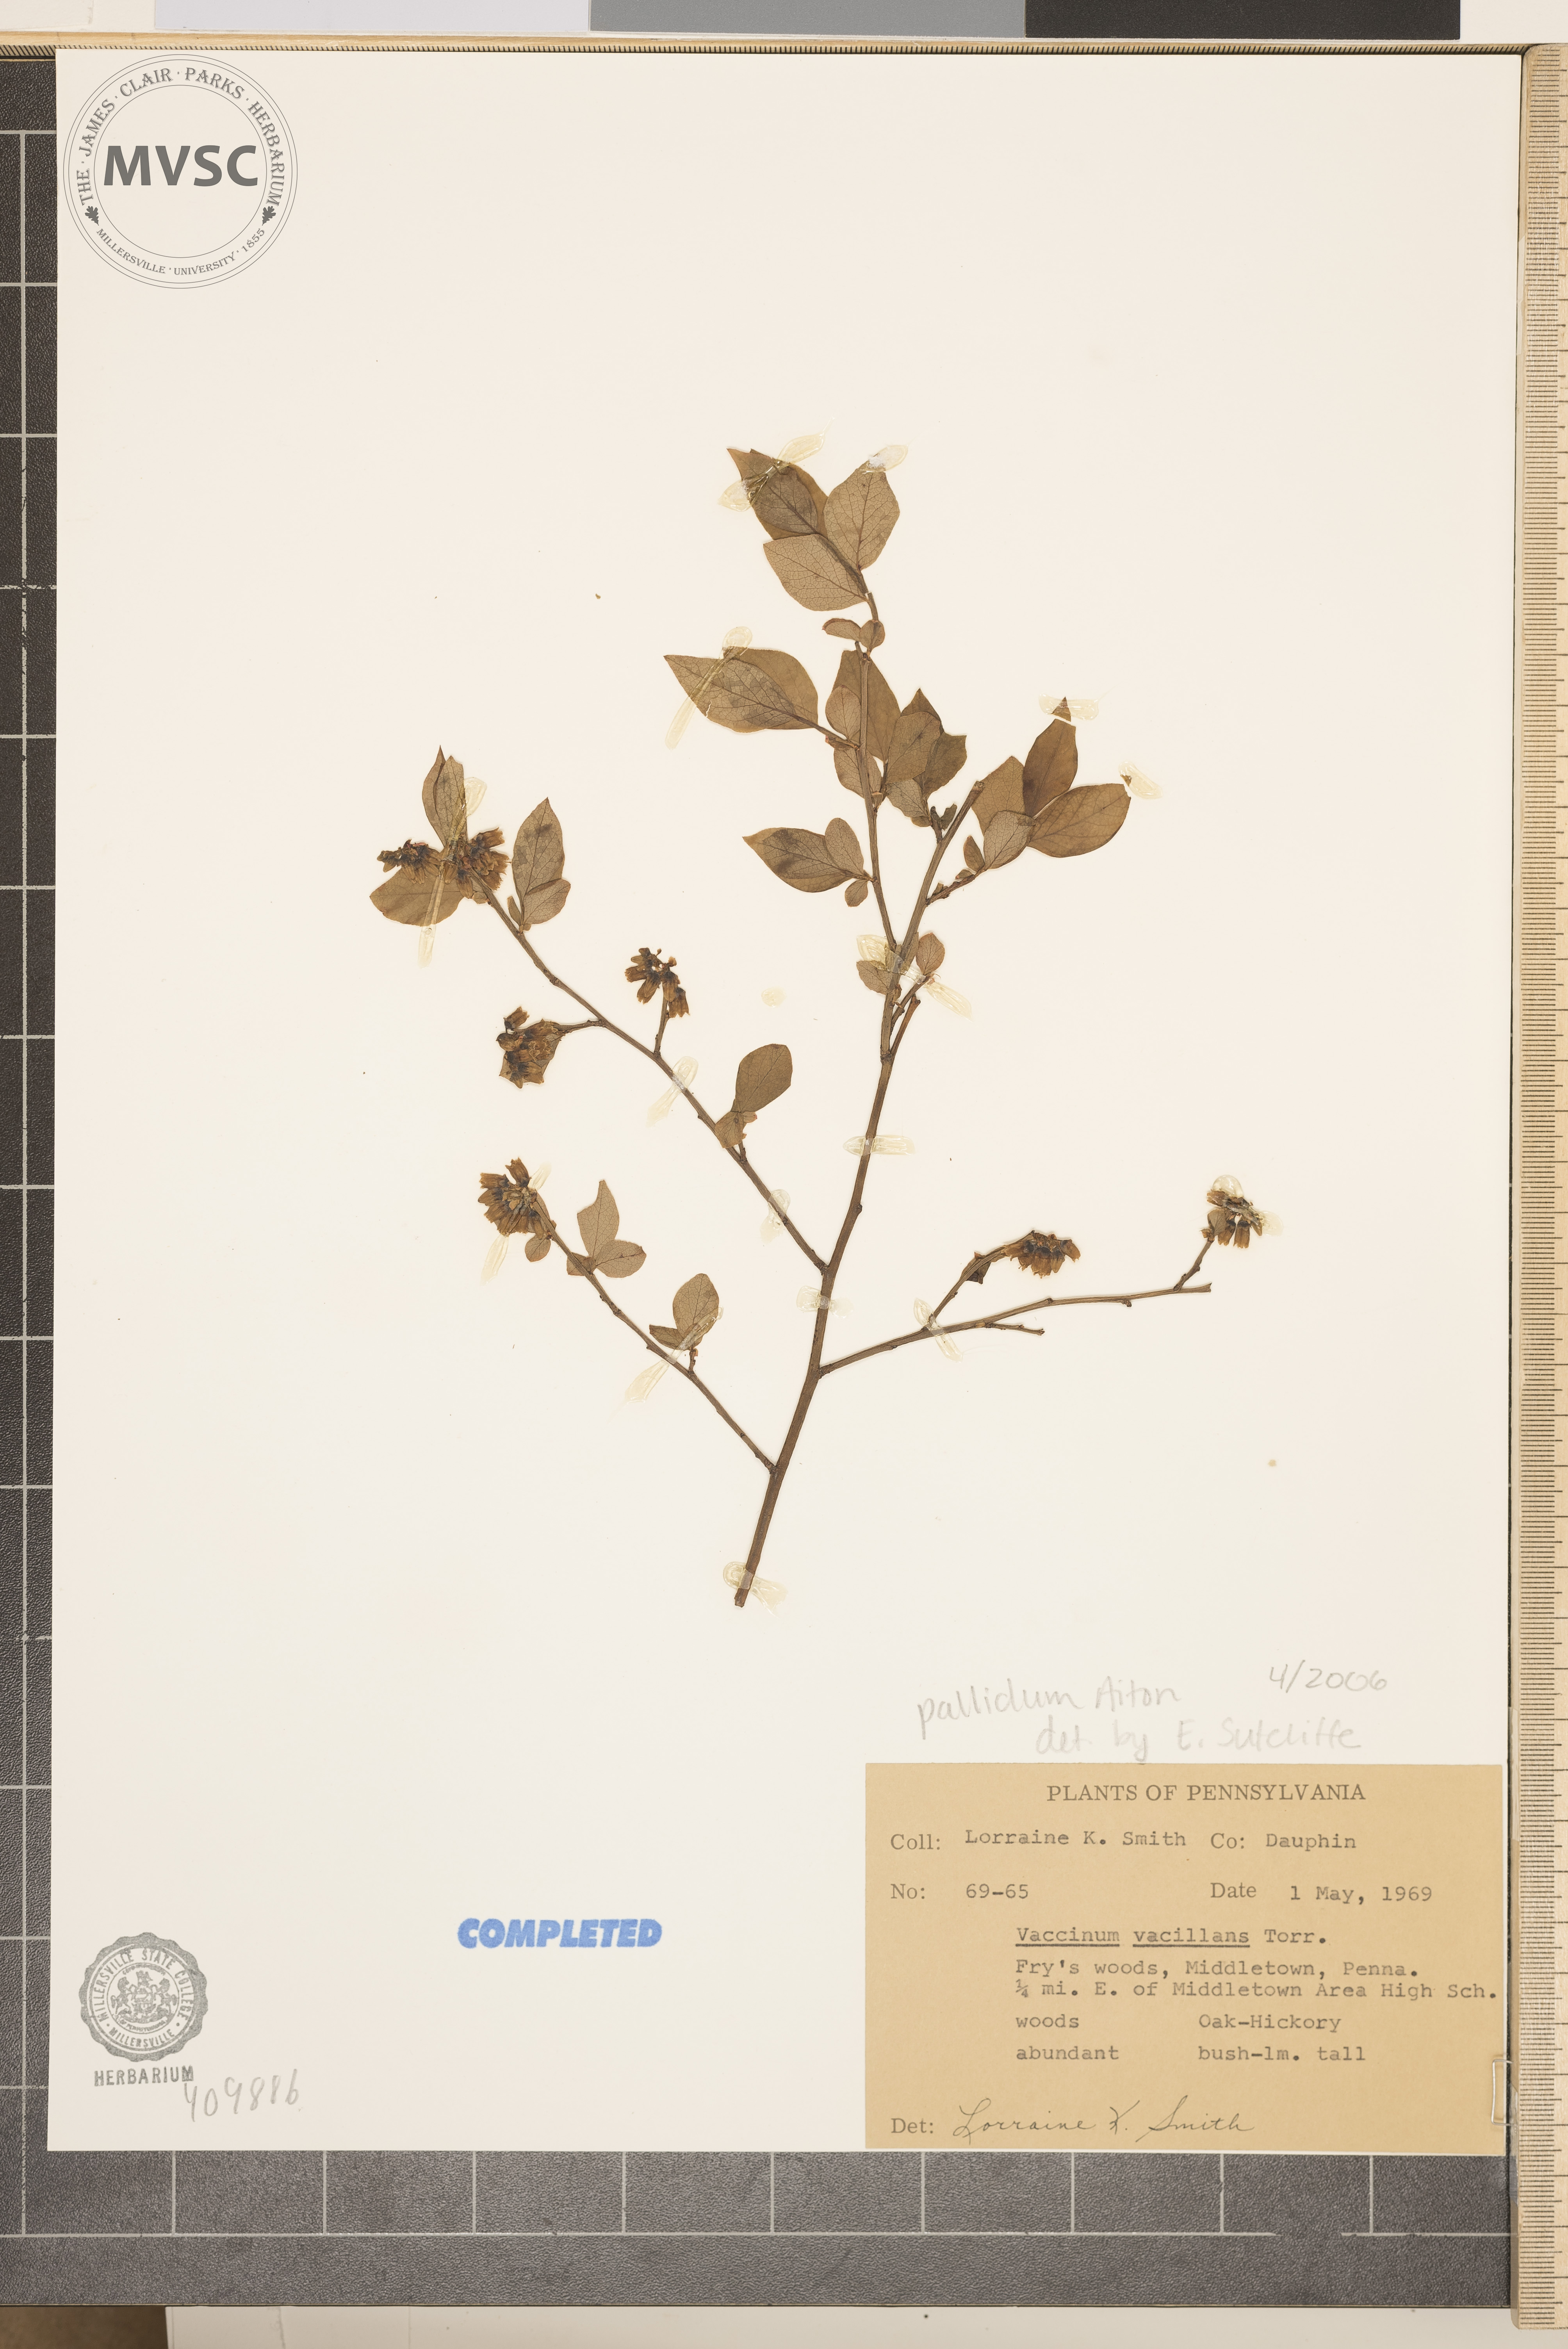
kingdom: Plantae
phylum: Tracheophyta
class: Magnoliopsida
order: Ericales
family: Ericaceae
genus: Vaccinium
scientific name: Vaccinium pallidum
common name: Blue ridge blueberry
